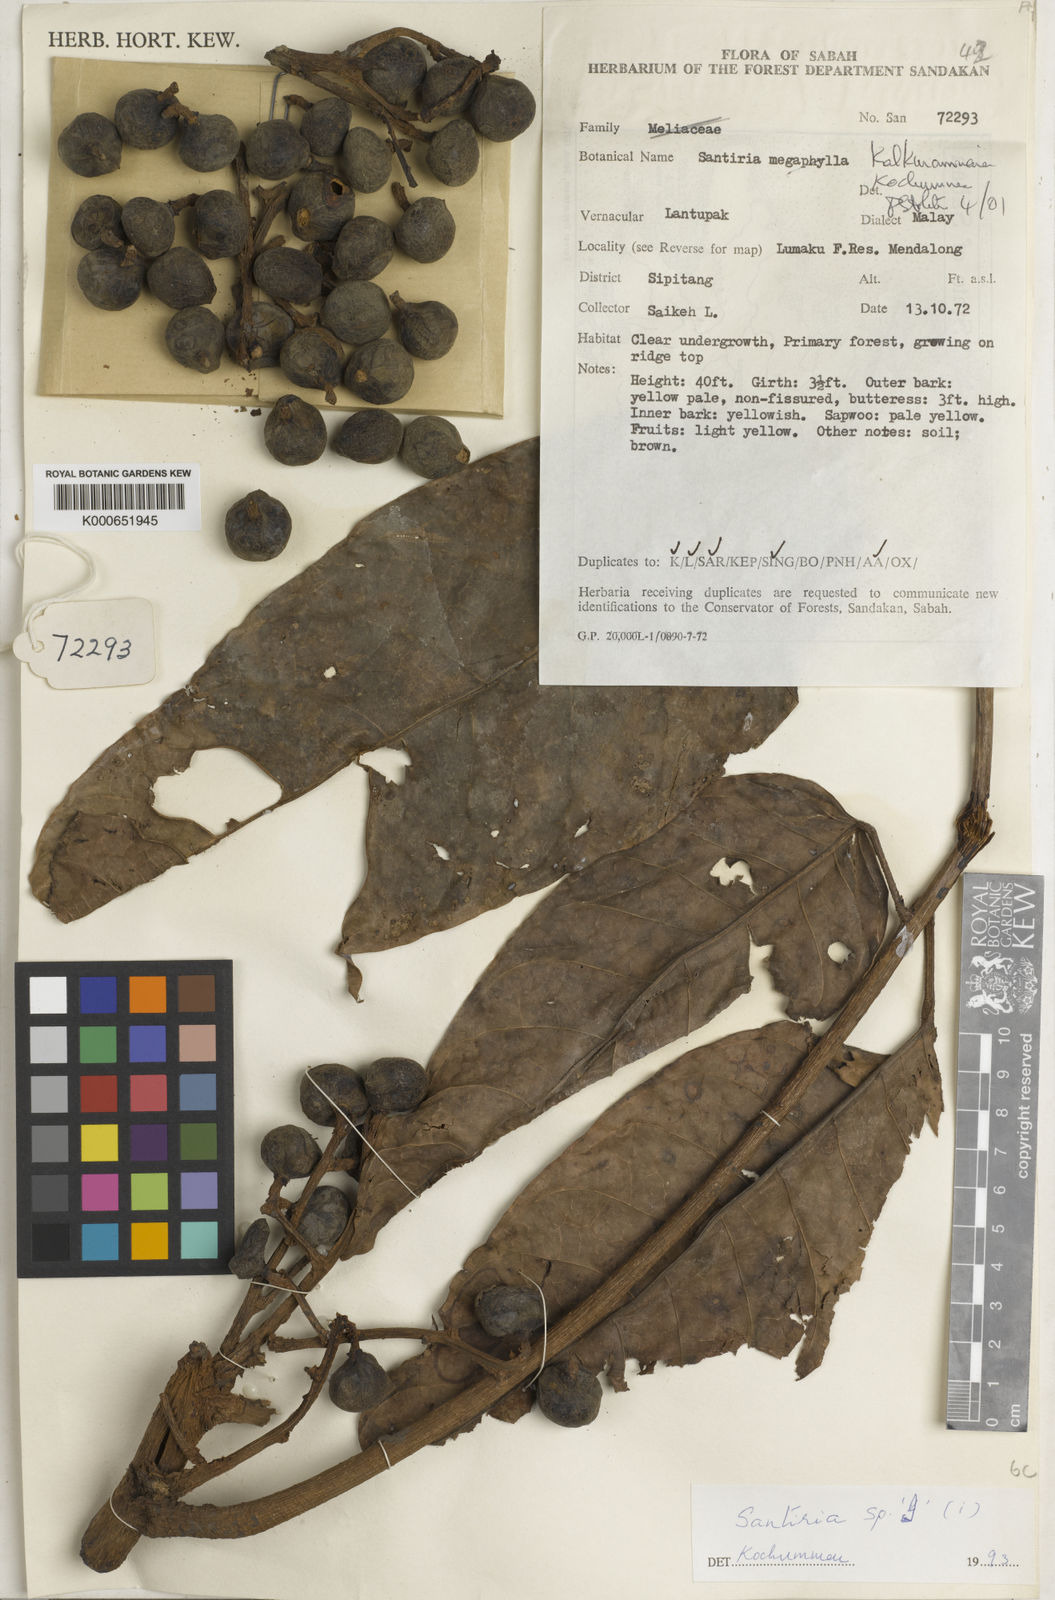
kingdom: Plantae
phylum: Tracheophyta
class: Magnoliopsida
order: Sapindales
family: Burseraceae
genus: Santiria
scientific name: Santiria kalkmaniana
